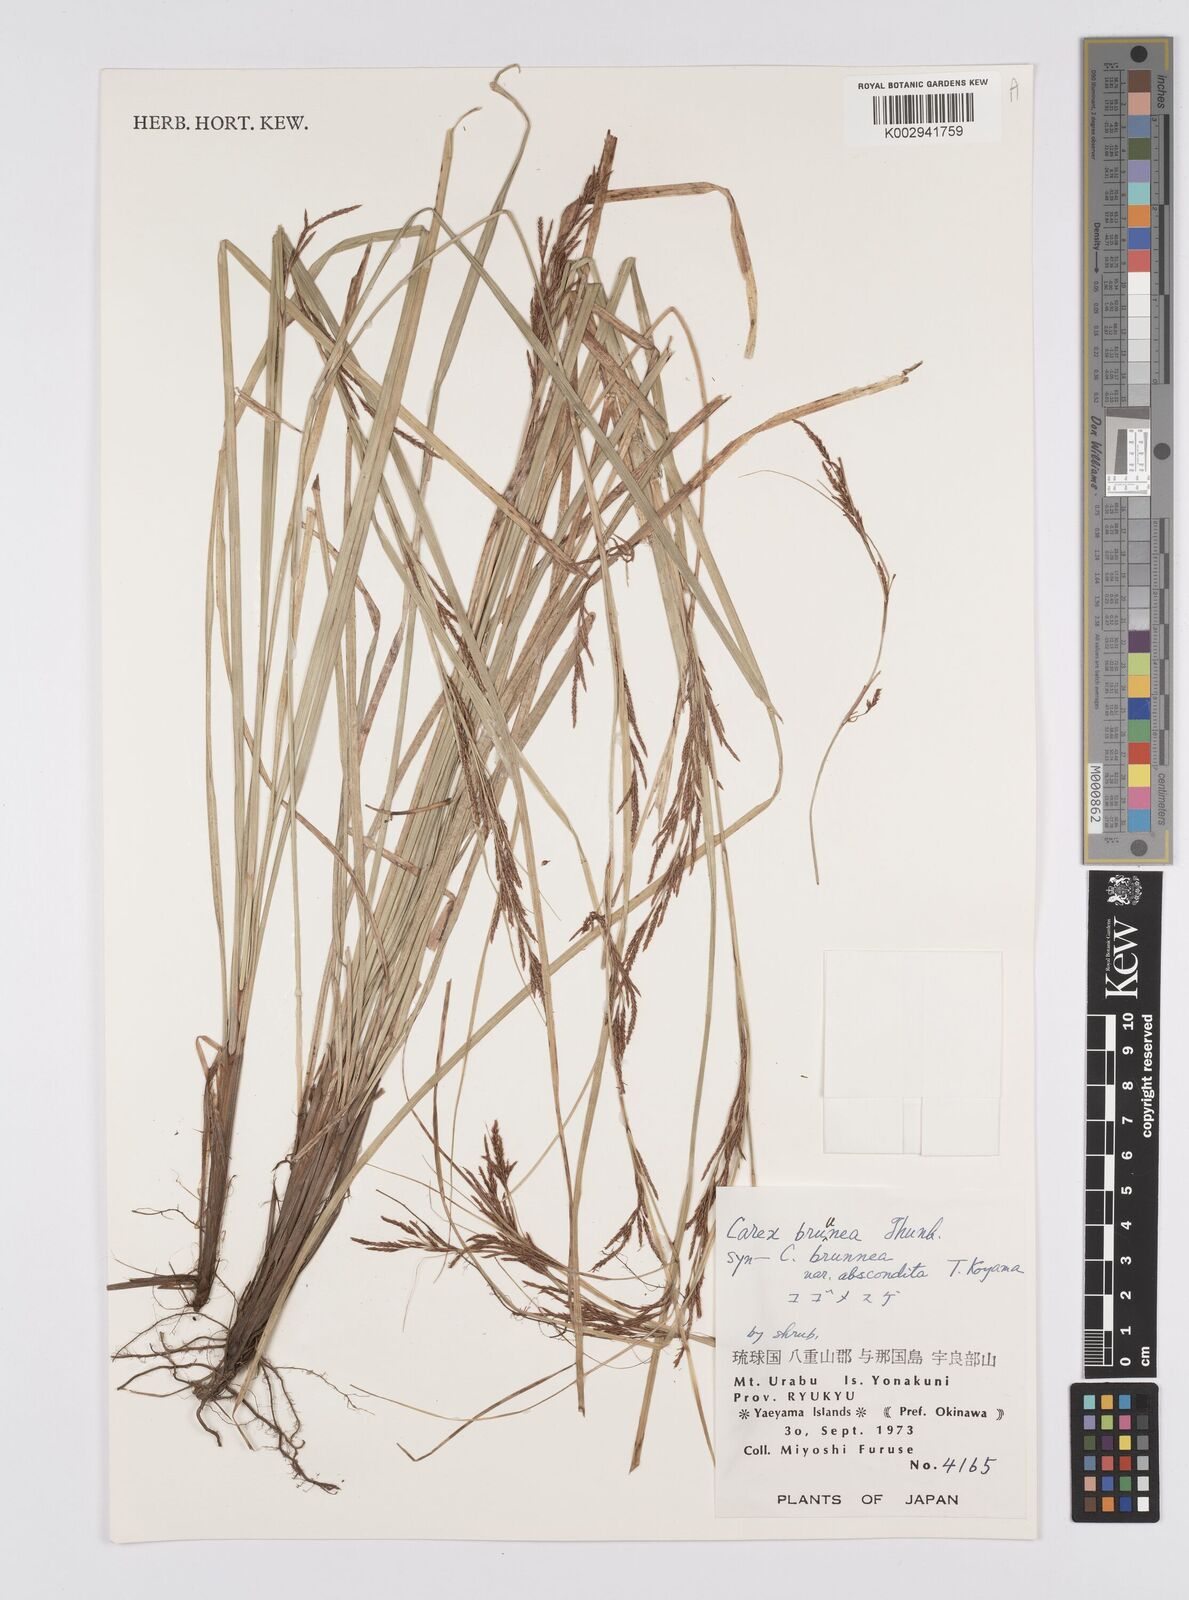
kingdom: Plantae
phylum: Tracheophyta
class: Liliopsida
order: Poales
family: Cyperaceae
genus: Carex
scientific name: Carex brunnea
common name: Greater brown sedge
